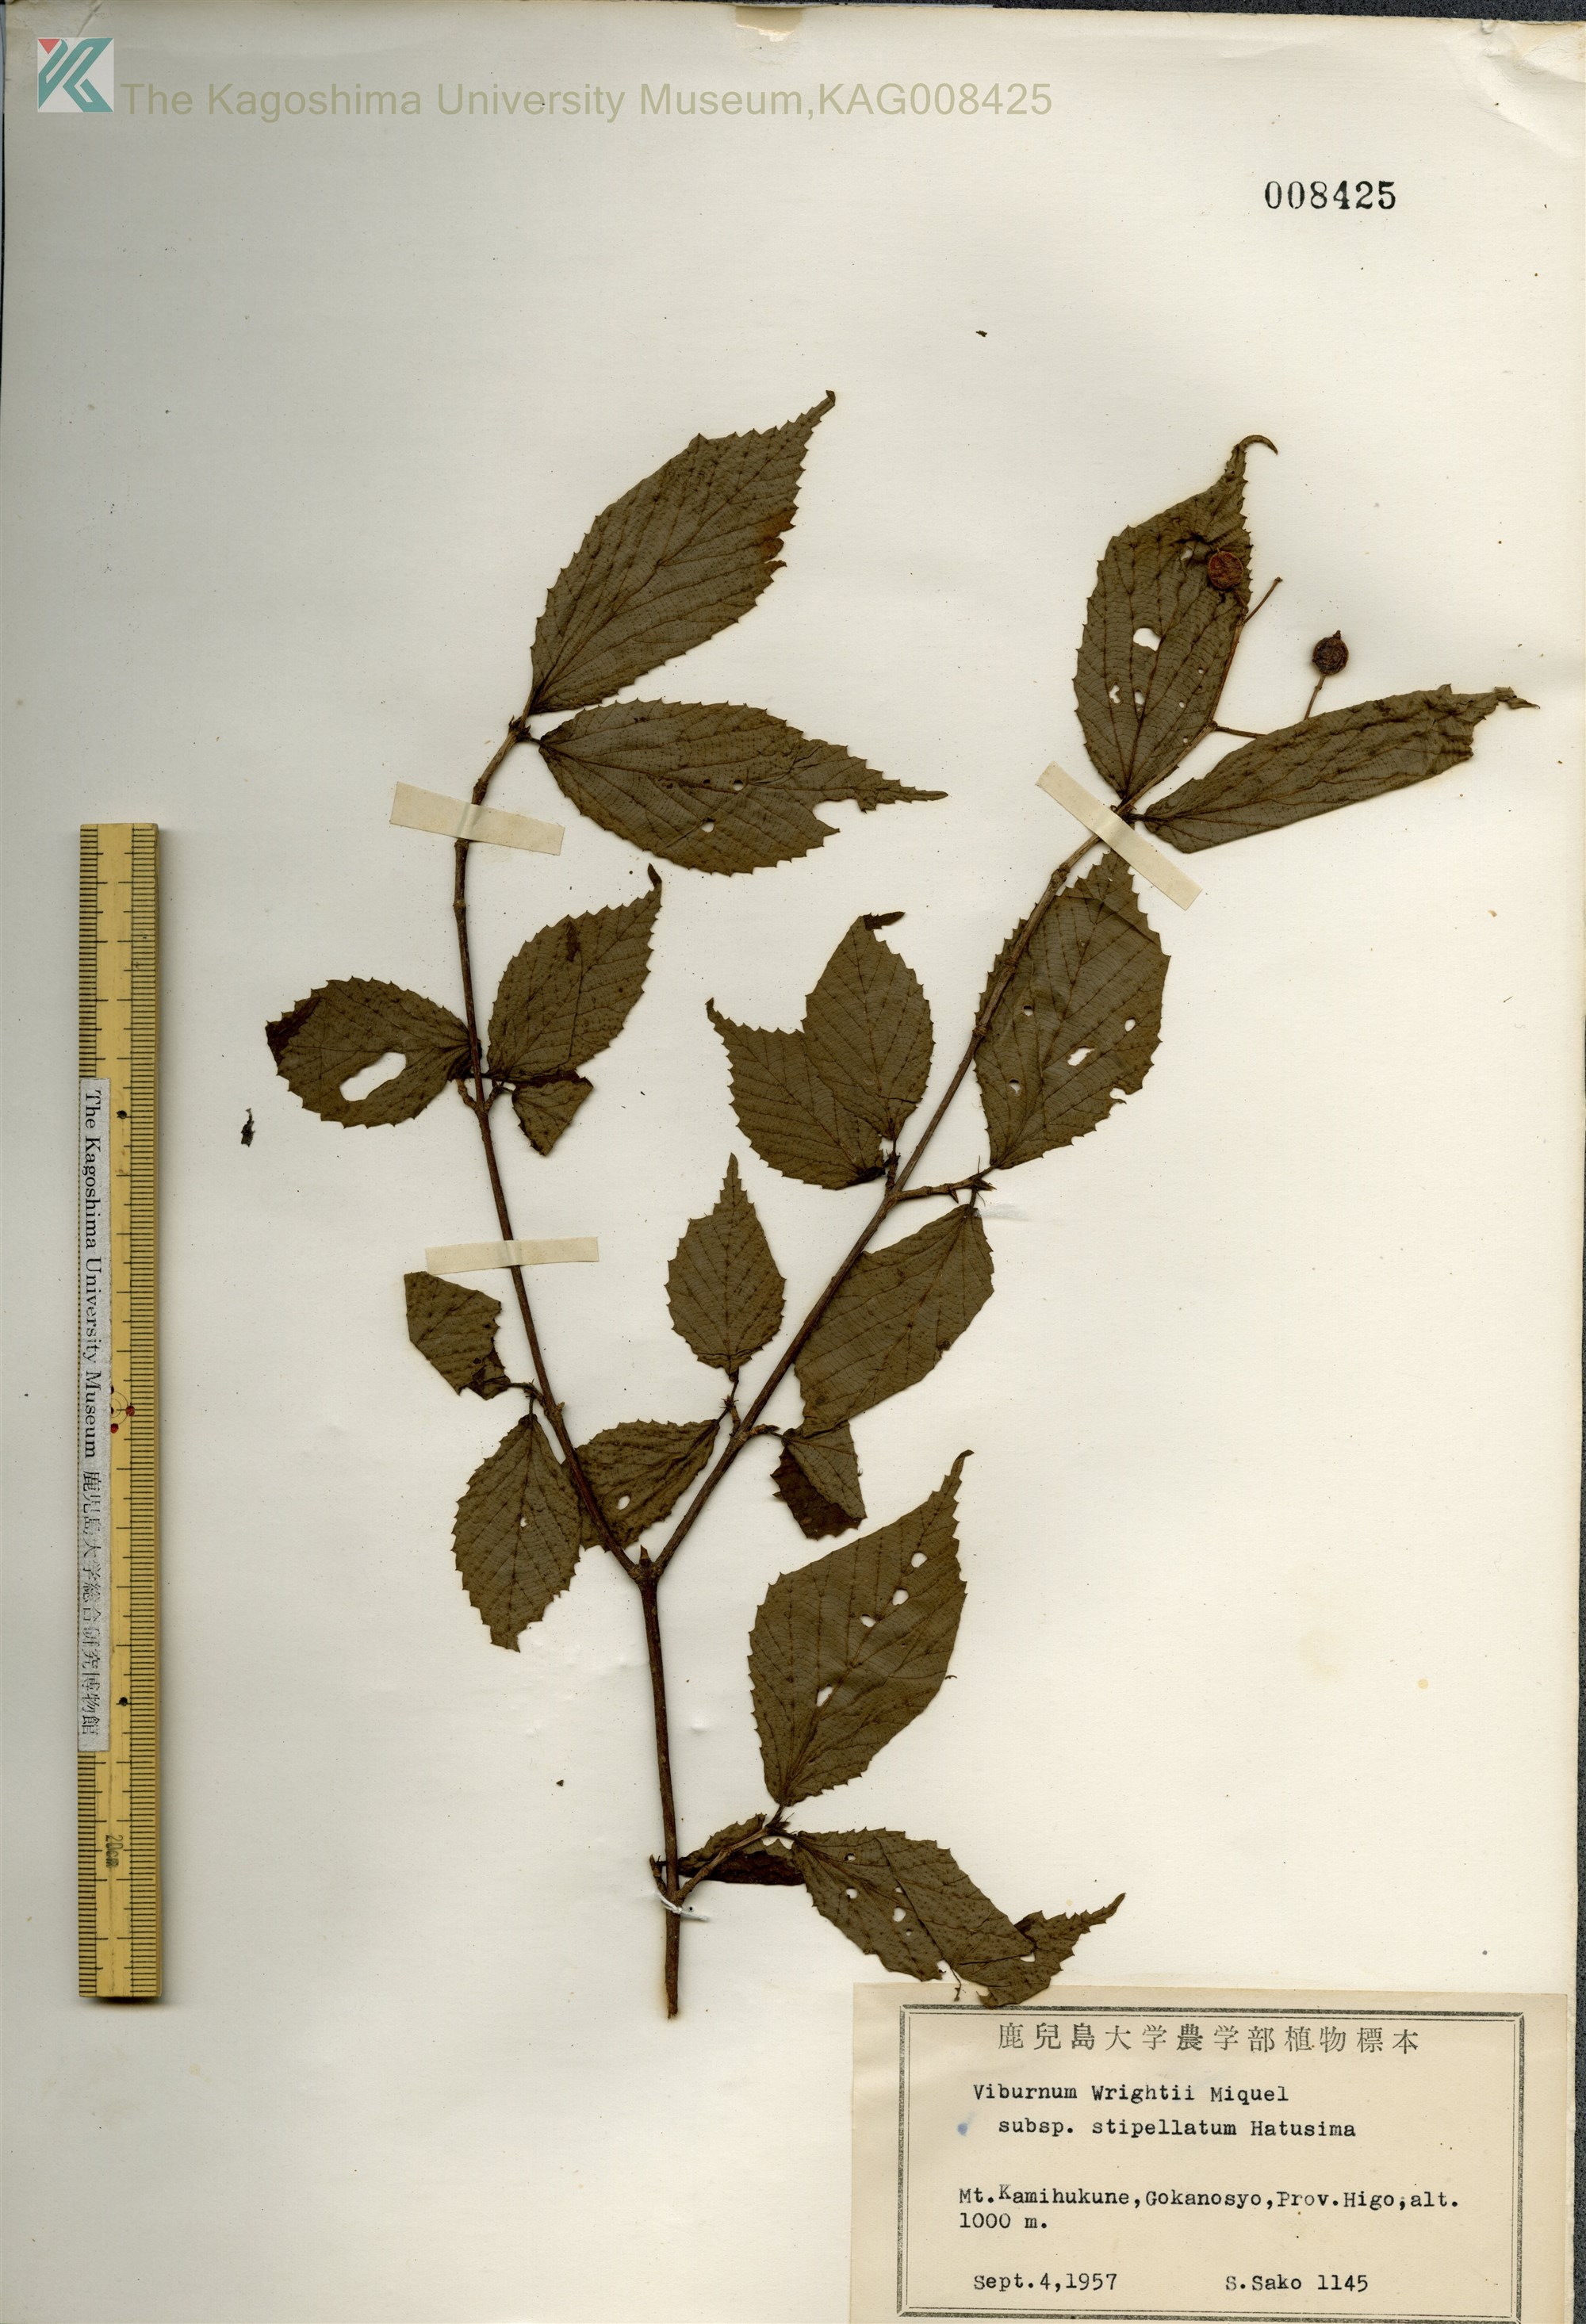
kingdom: Plantae
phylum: Tracheophyta
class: Magnoliopsida
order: Dipsacales
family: Viburnaceae
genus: Viburnum
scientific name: Viburnum erosum
